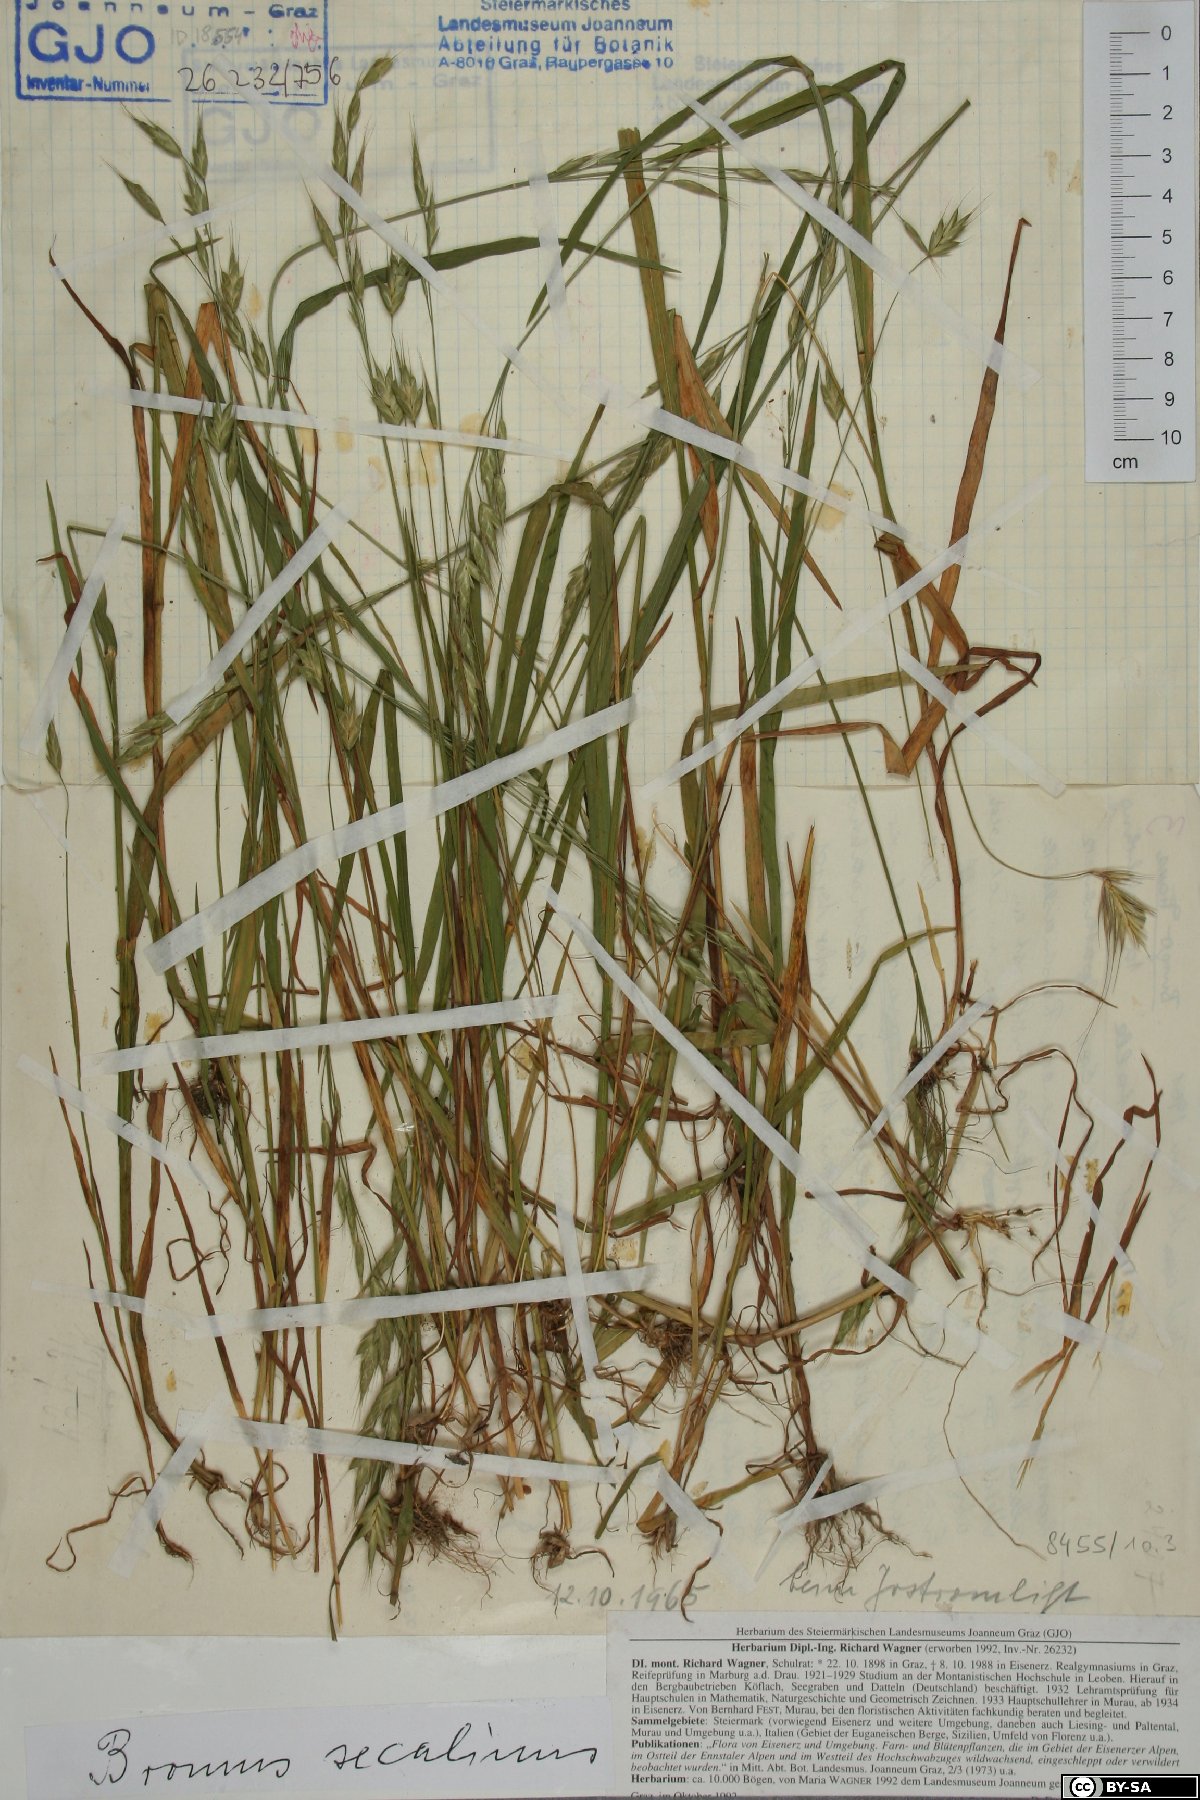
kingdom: Plantae
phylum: Tracheophyta
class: Liliopsida
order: Poales
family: Poaceae
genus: Bromus
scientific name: Bromus secalinus
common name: Rye brome
